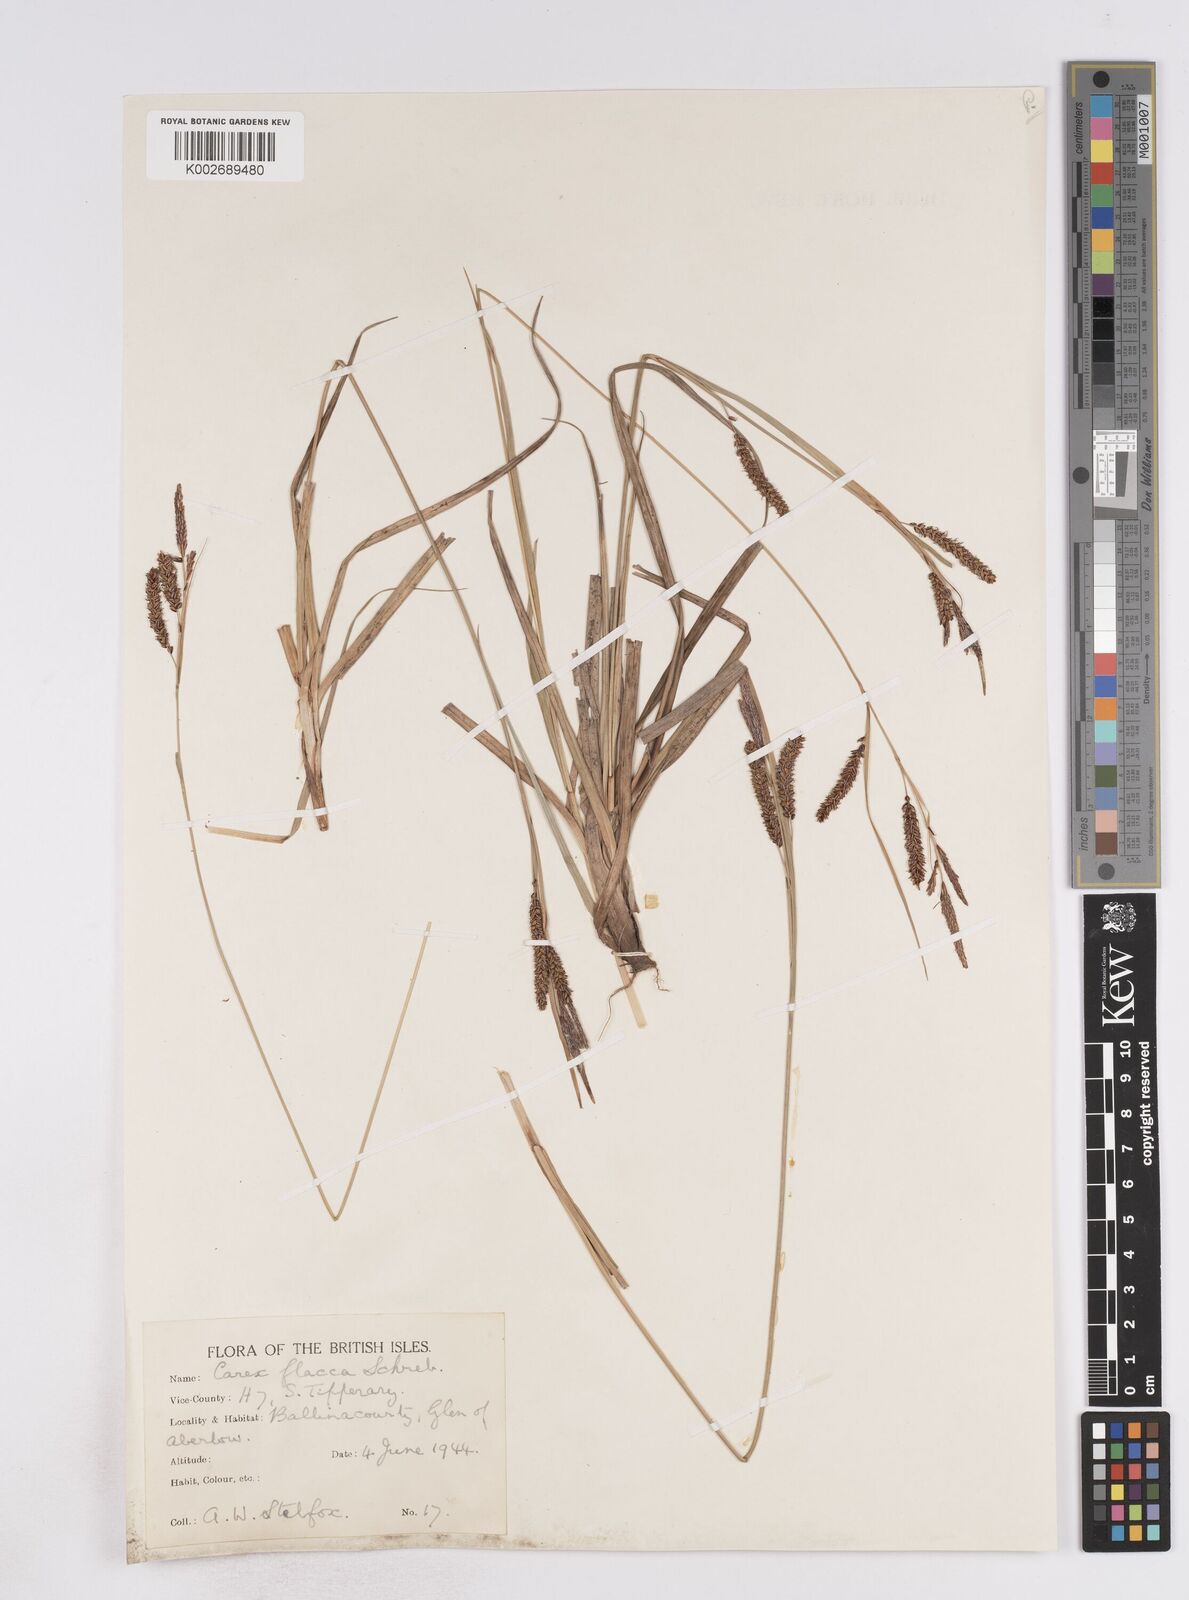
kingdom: Plantae
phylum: Tracheophyta
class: Liliopsida
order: Poales
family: Cyperaceae
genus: Carex
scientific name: Carex flacca
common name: Glaucous sedge
